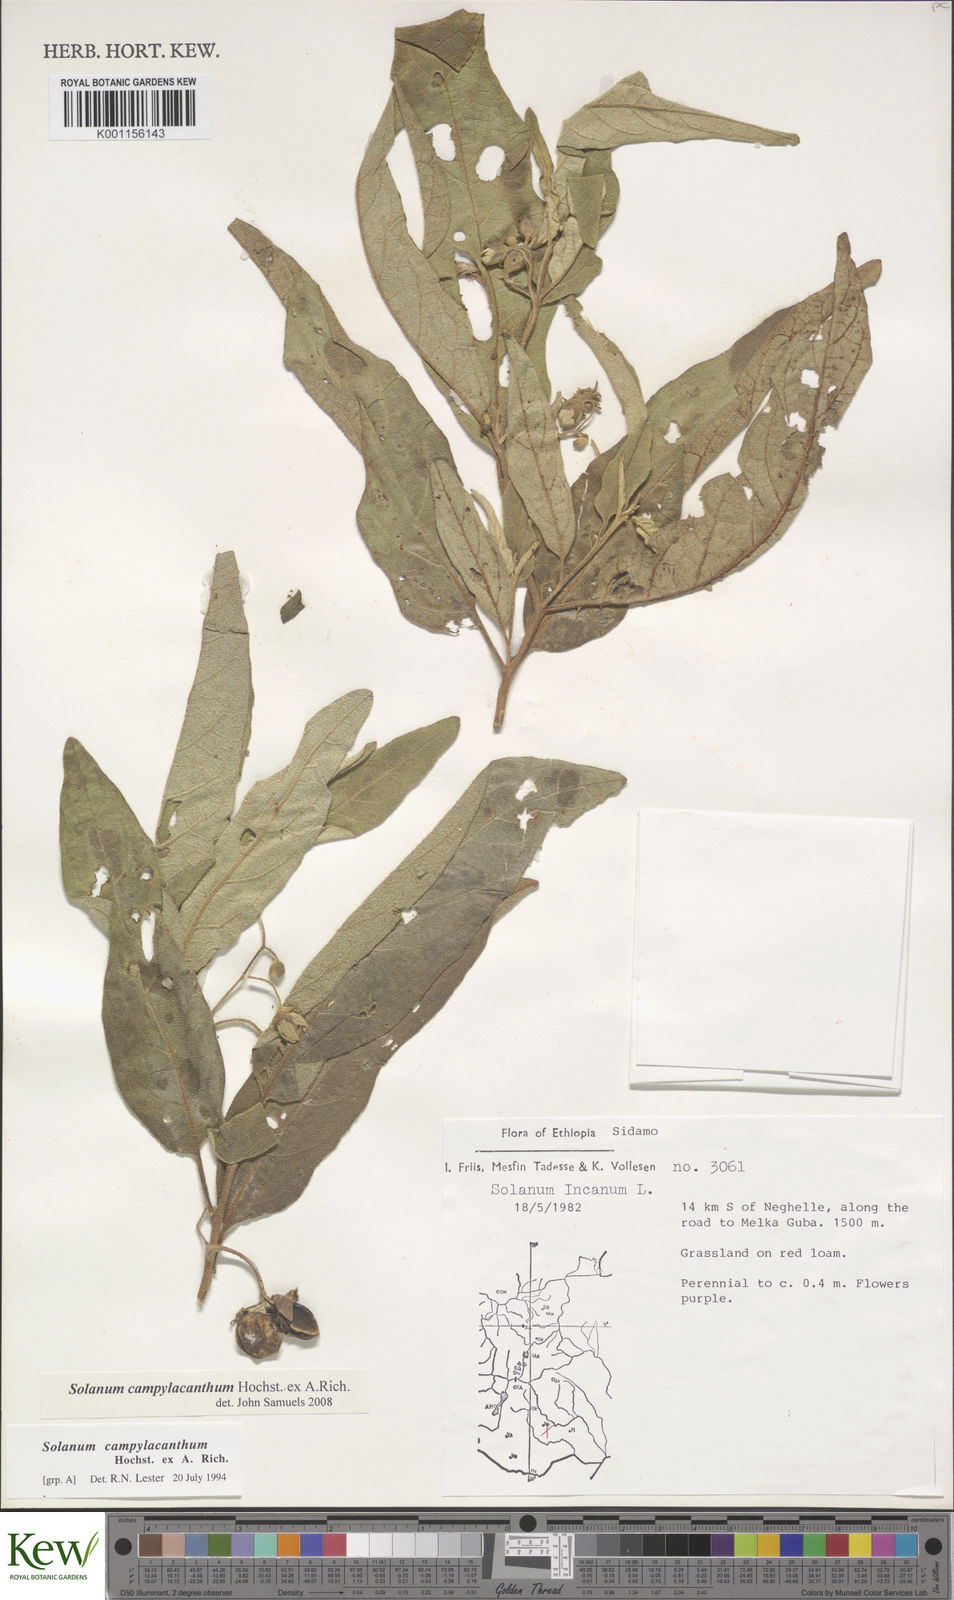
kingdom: Plantae
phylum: Tracheophyta
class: Magnoliopsida
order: Solanales
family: Solanaceae
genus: Solanum
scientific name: Solanum campylacanthum
